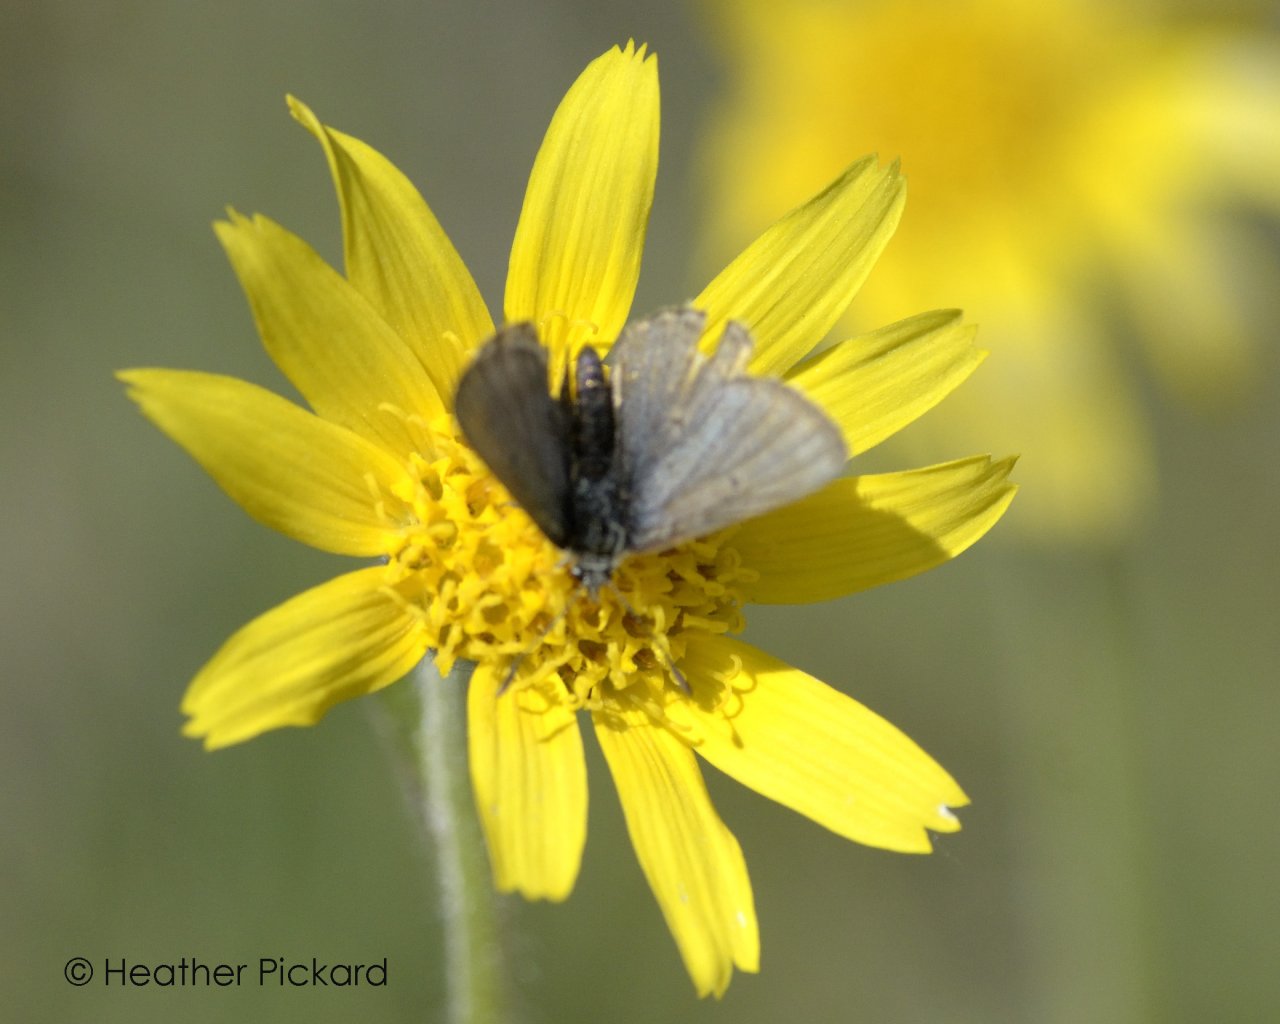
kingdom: Animalia
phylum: Arthropoda
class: Insecta
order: Lepidoptera
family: Lycaenidae
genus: Agriades
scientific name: Agriades glandon
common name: Arctic Blue
